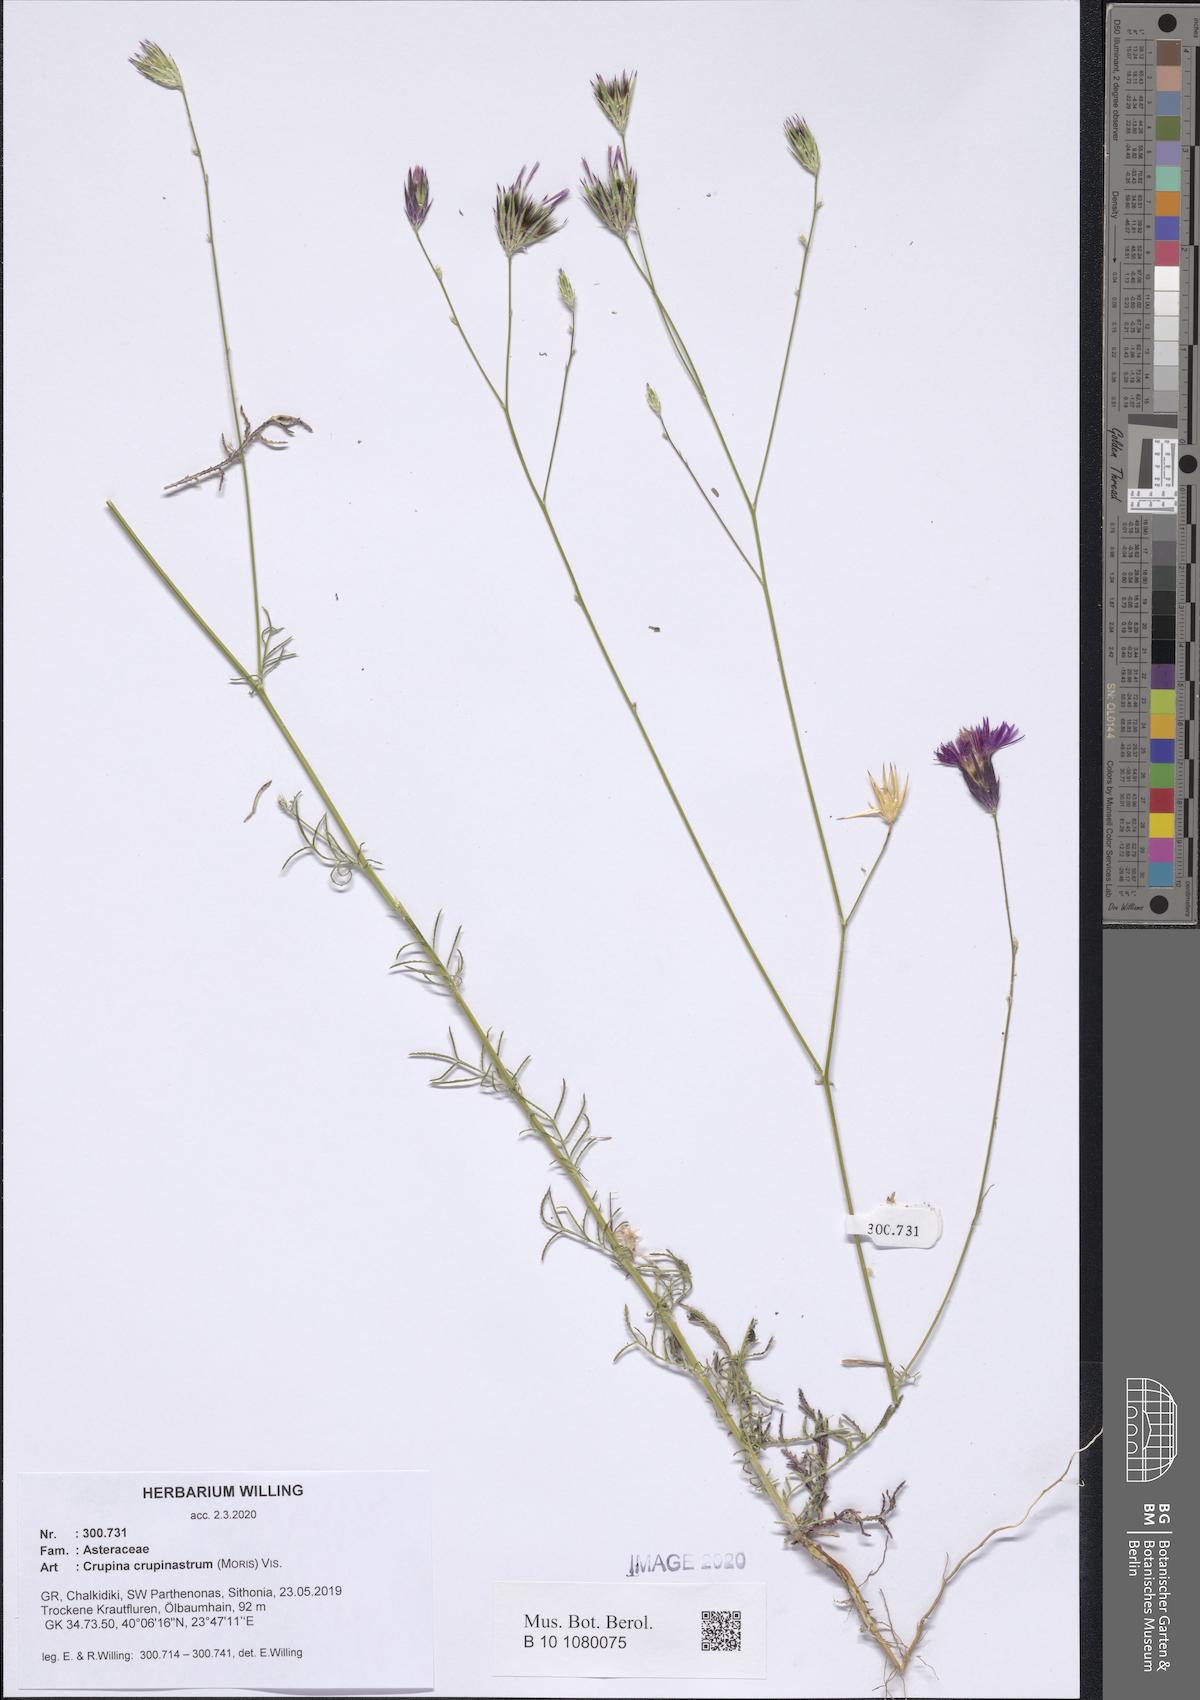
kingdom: Plantae
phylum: Tracheophyta
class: Magnoliopsida
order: Asterales
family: Asteraceae
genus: Crupina
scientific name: Crupina crupinastrum
